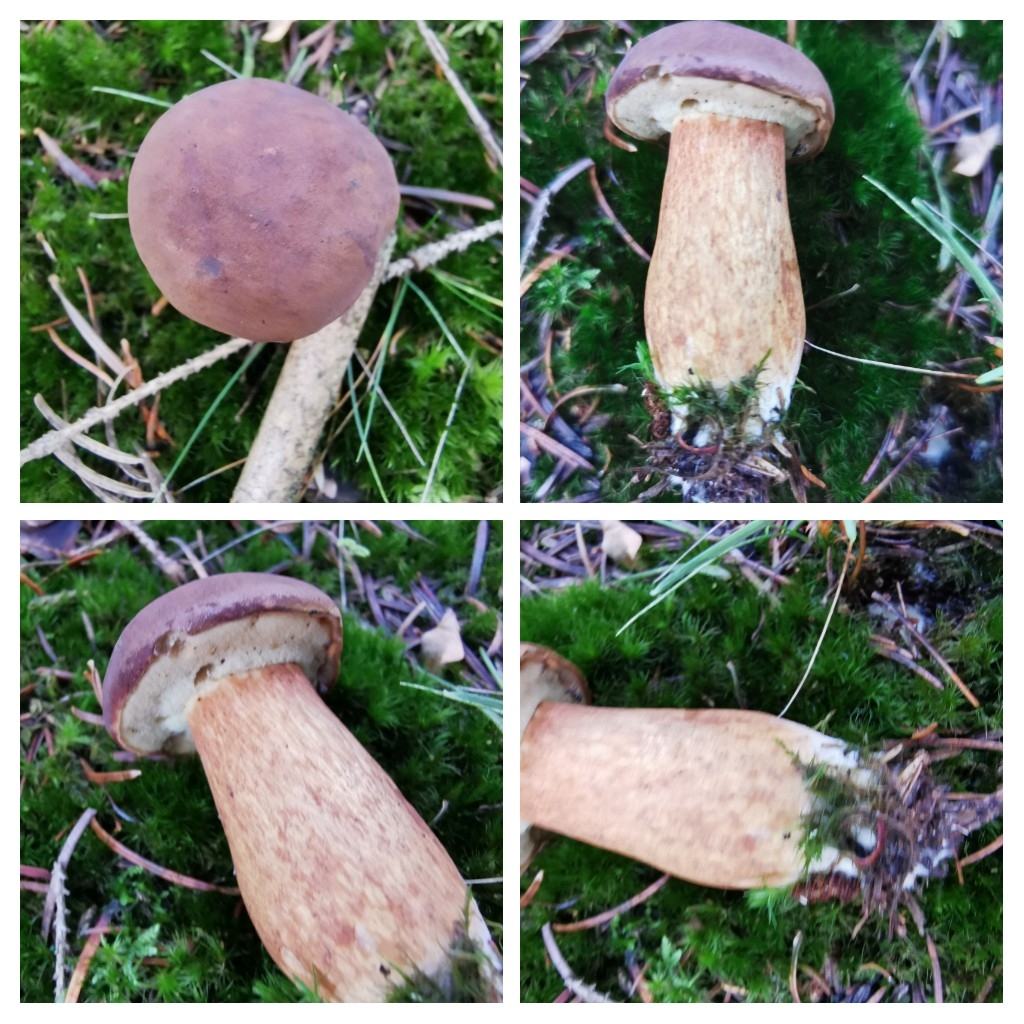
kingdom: Fungi
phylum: Basidiomycota
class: Agaricomycetes
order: Boletales
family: Boletaceae
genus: Imleria
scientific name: Imleria badia
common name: brunstokket rørhat
